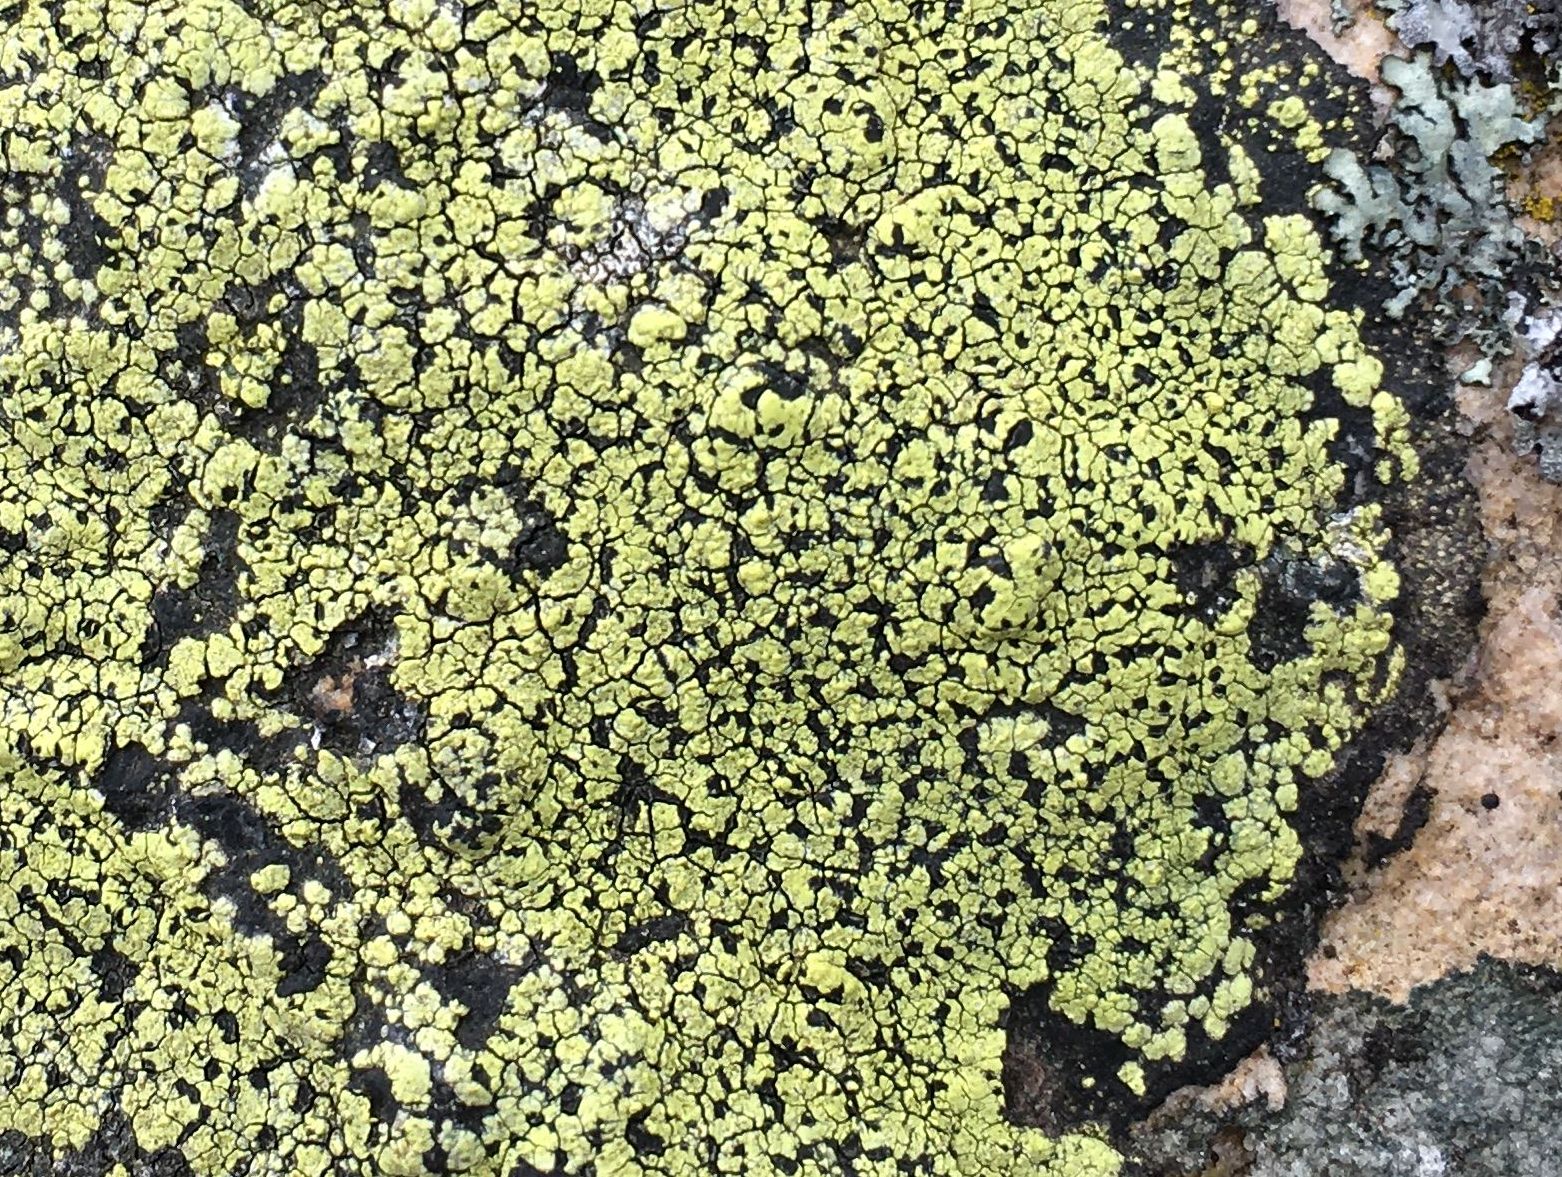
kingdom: Fungi
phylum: Ascomycota
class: Lecanoromycetes
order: Rhizocarpales
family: Rhizocarpaceae
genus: Rhizocarpon
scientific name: Rhizocarpon geographicum
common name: gulgrøn landkortlav
